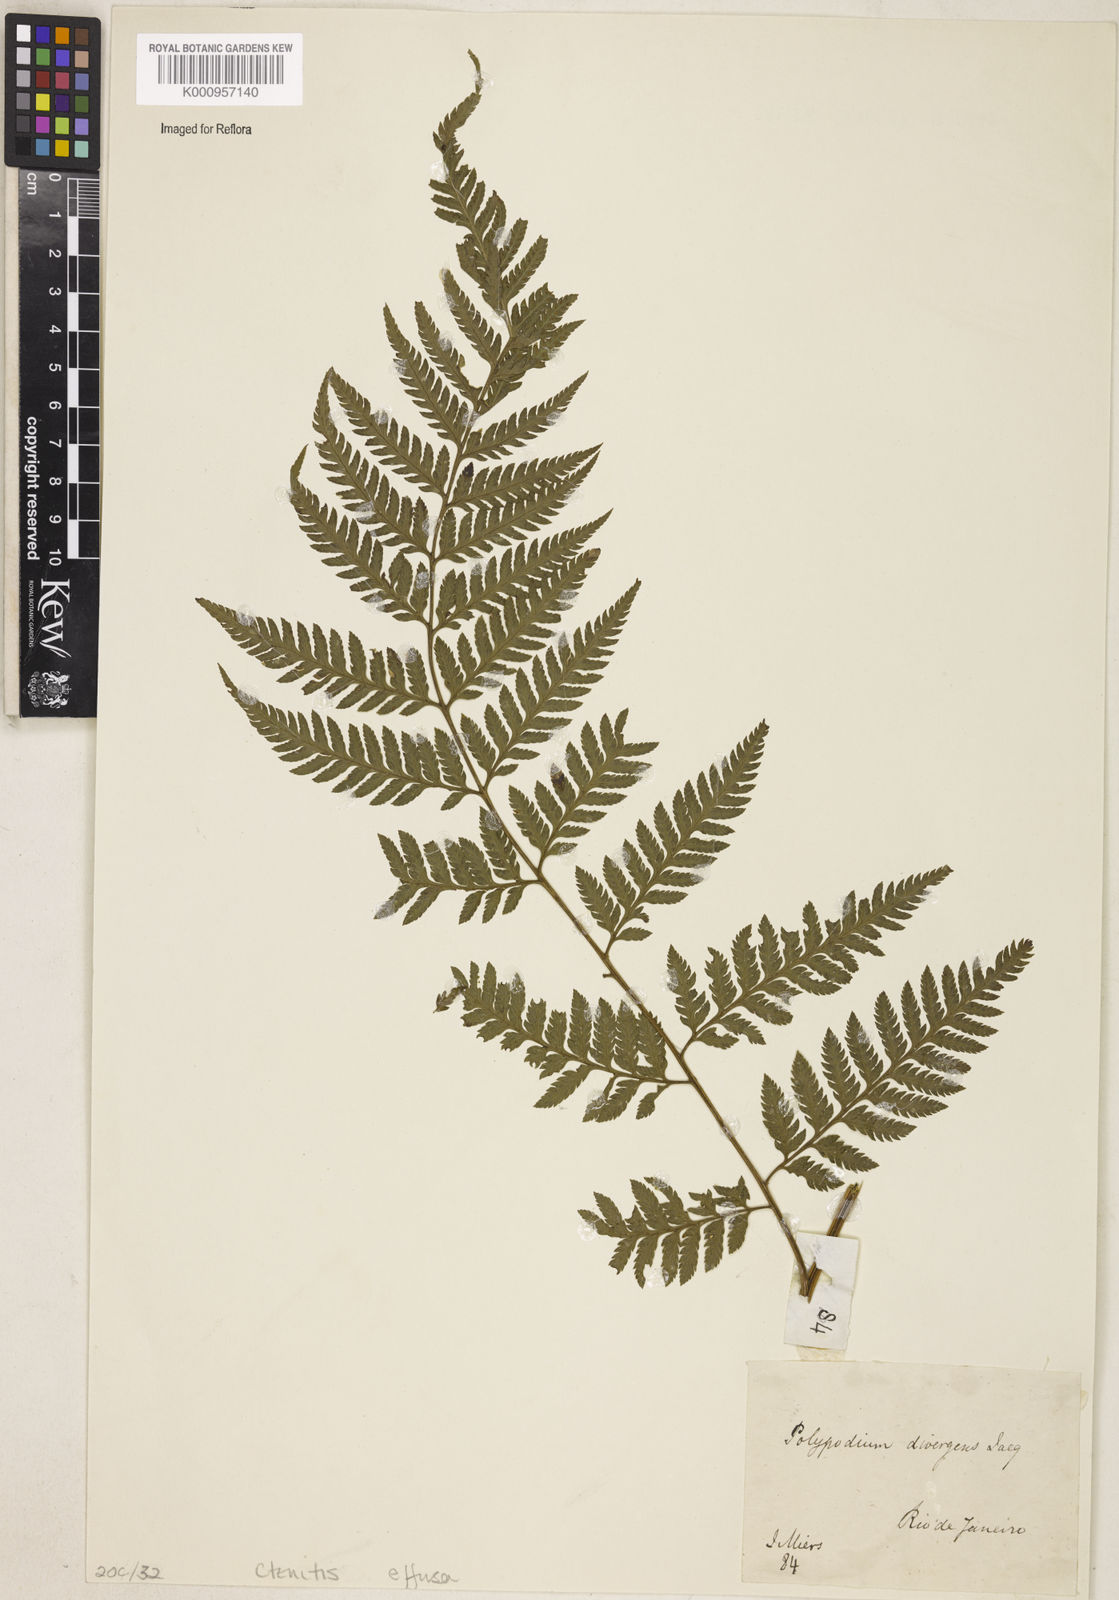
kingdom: Plantae
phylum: Tracheophyta
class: Polypodiopsida
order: Polypodiales
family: Dryopteridaceae
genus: Parapolystichum
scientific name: Parapolystichum effusum
